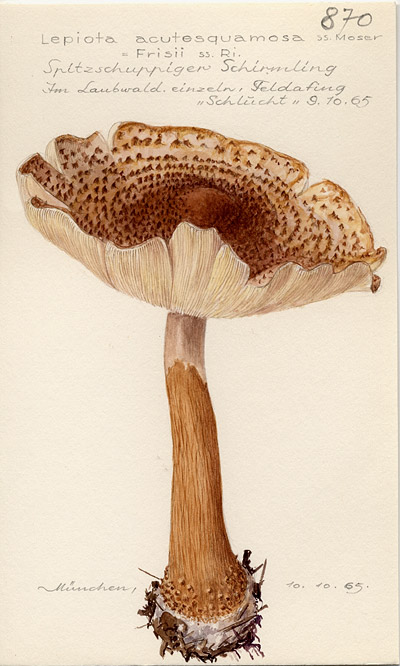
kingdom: Fungi
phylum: Basidiomycota
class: Agaricomycetes
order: Agaricales
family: Agaricaceae
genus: Echinoderma
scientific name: Echinoderma asperum
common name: Freckled dapperling
